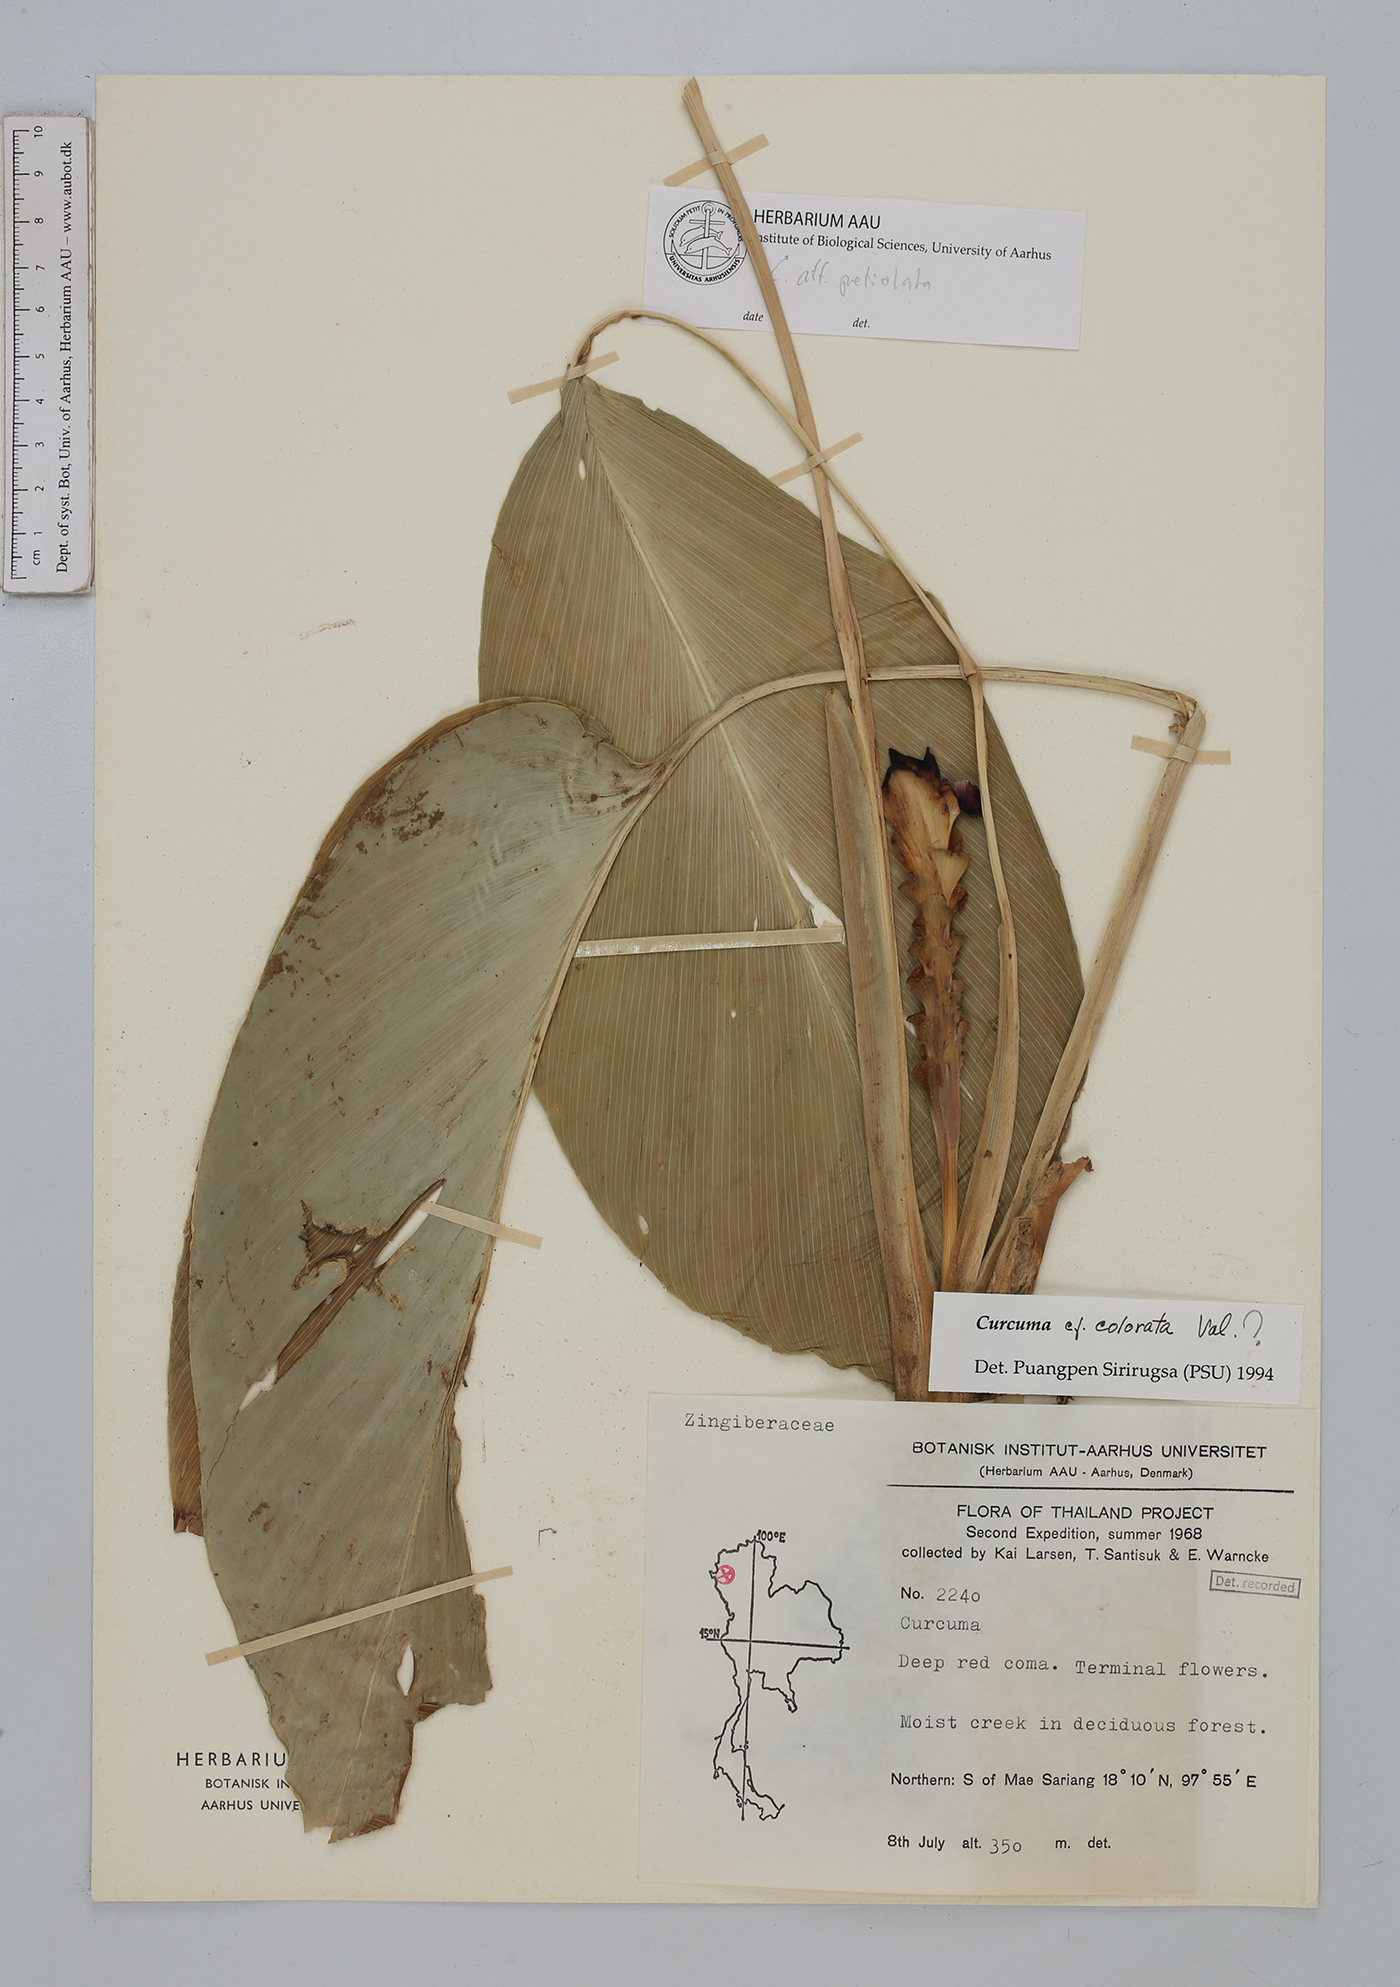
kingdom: Plantae
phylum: Tracheophyta
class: Liliopsida
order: Zingiberales
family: Zingiberaceae
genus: Curcuma
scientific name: Curcuma
